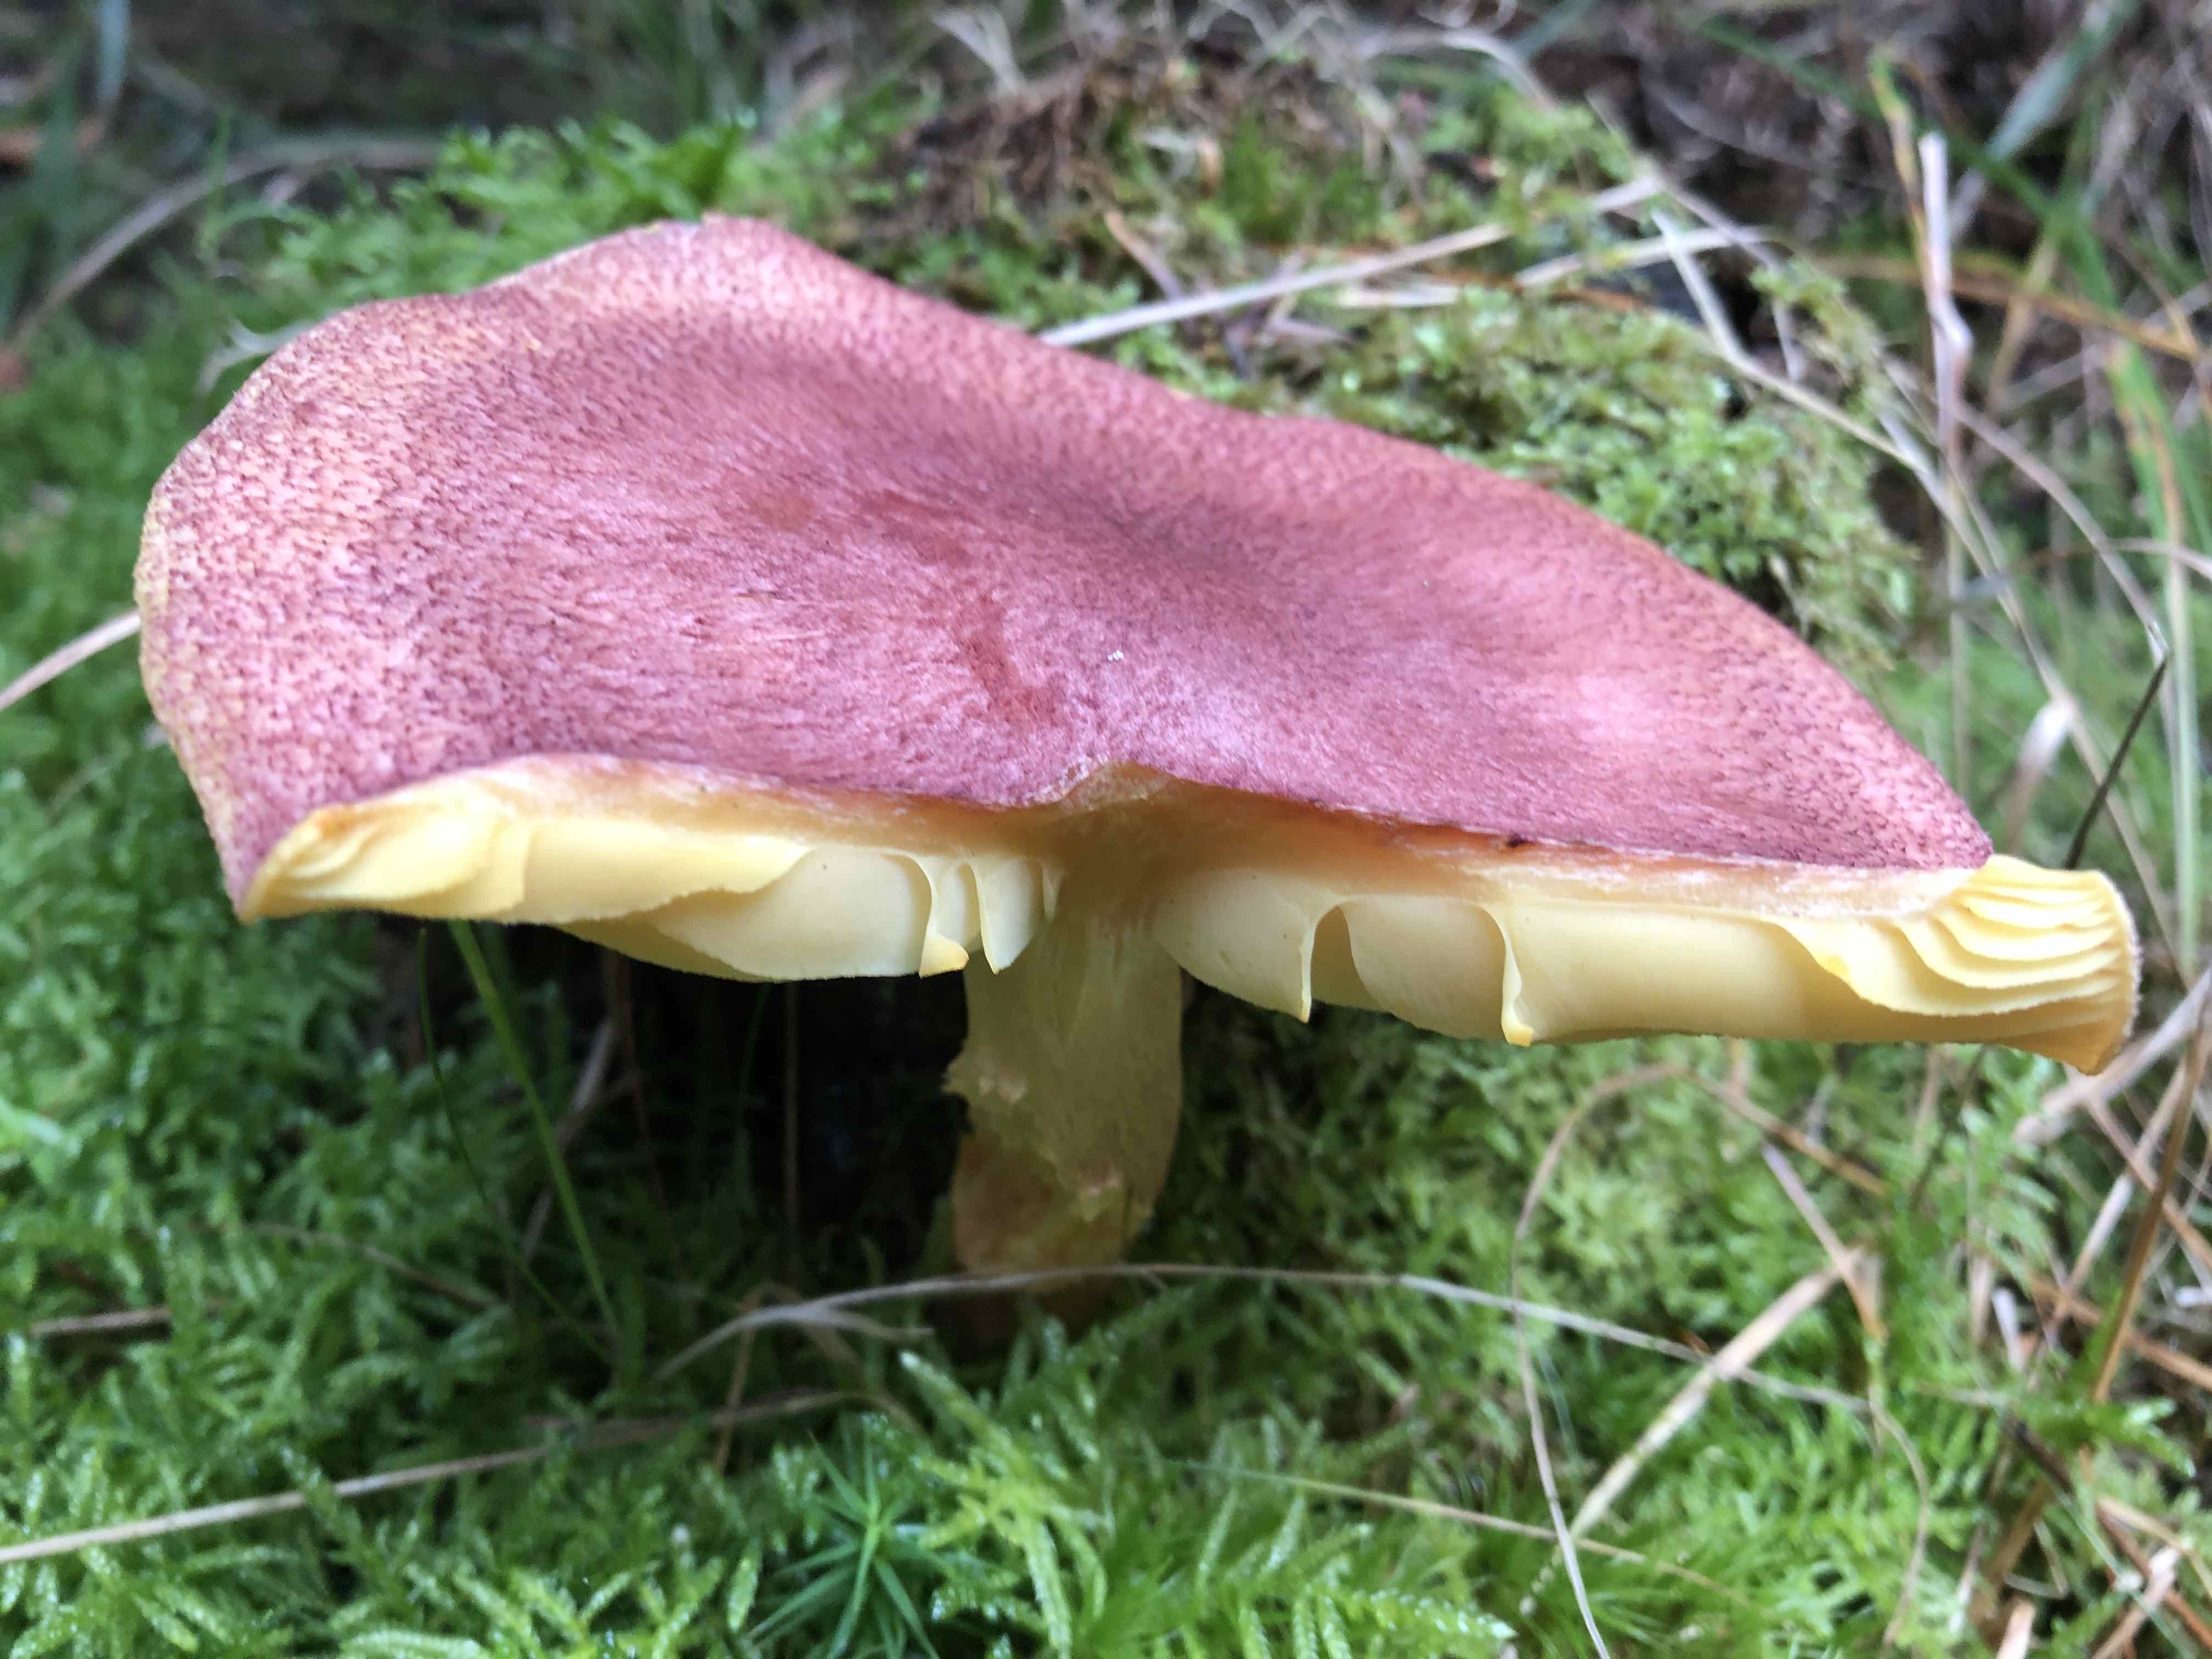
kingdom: Fungi
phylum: Basidiomycota
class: Agaricomycetes
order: Agaricales
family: Tricholomataceae
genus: Tricholomopsis
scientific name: Tricholomopsis rutilans
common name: purpur-væbnerhat
